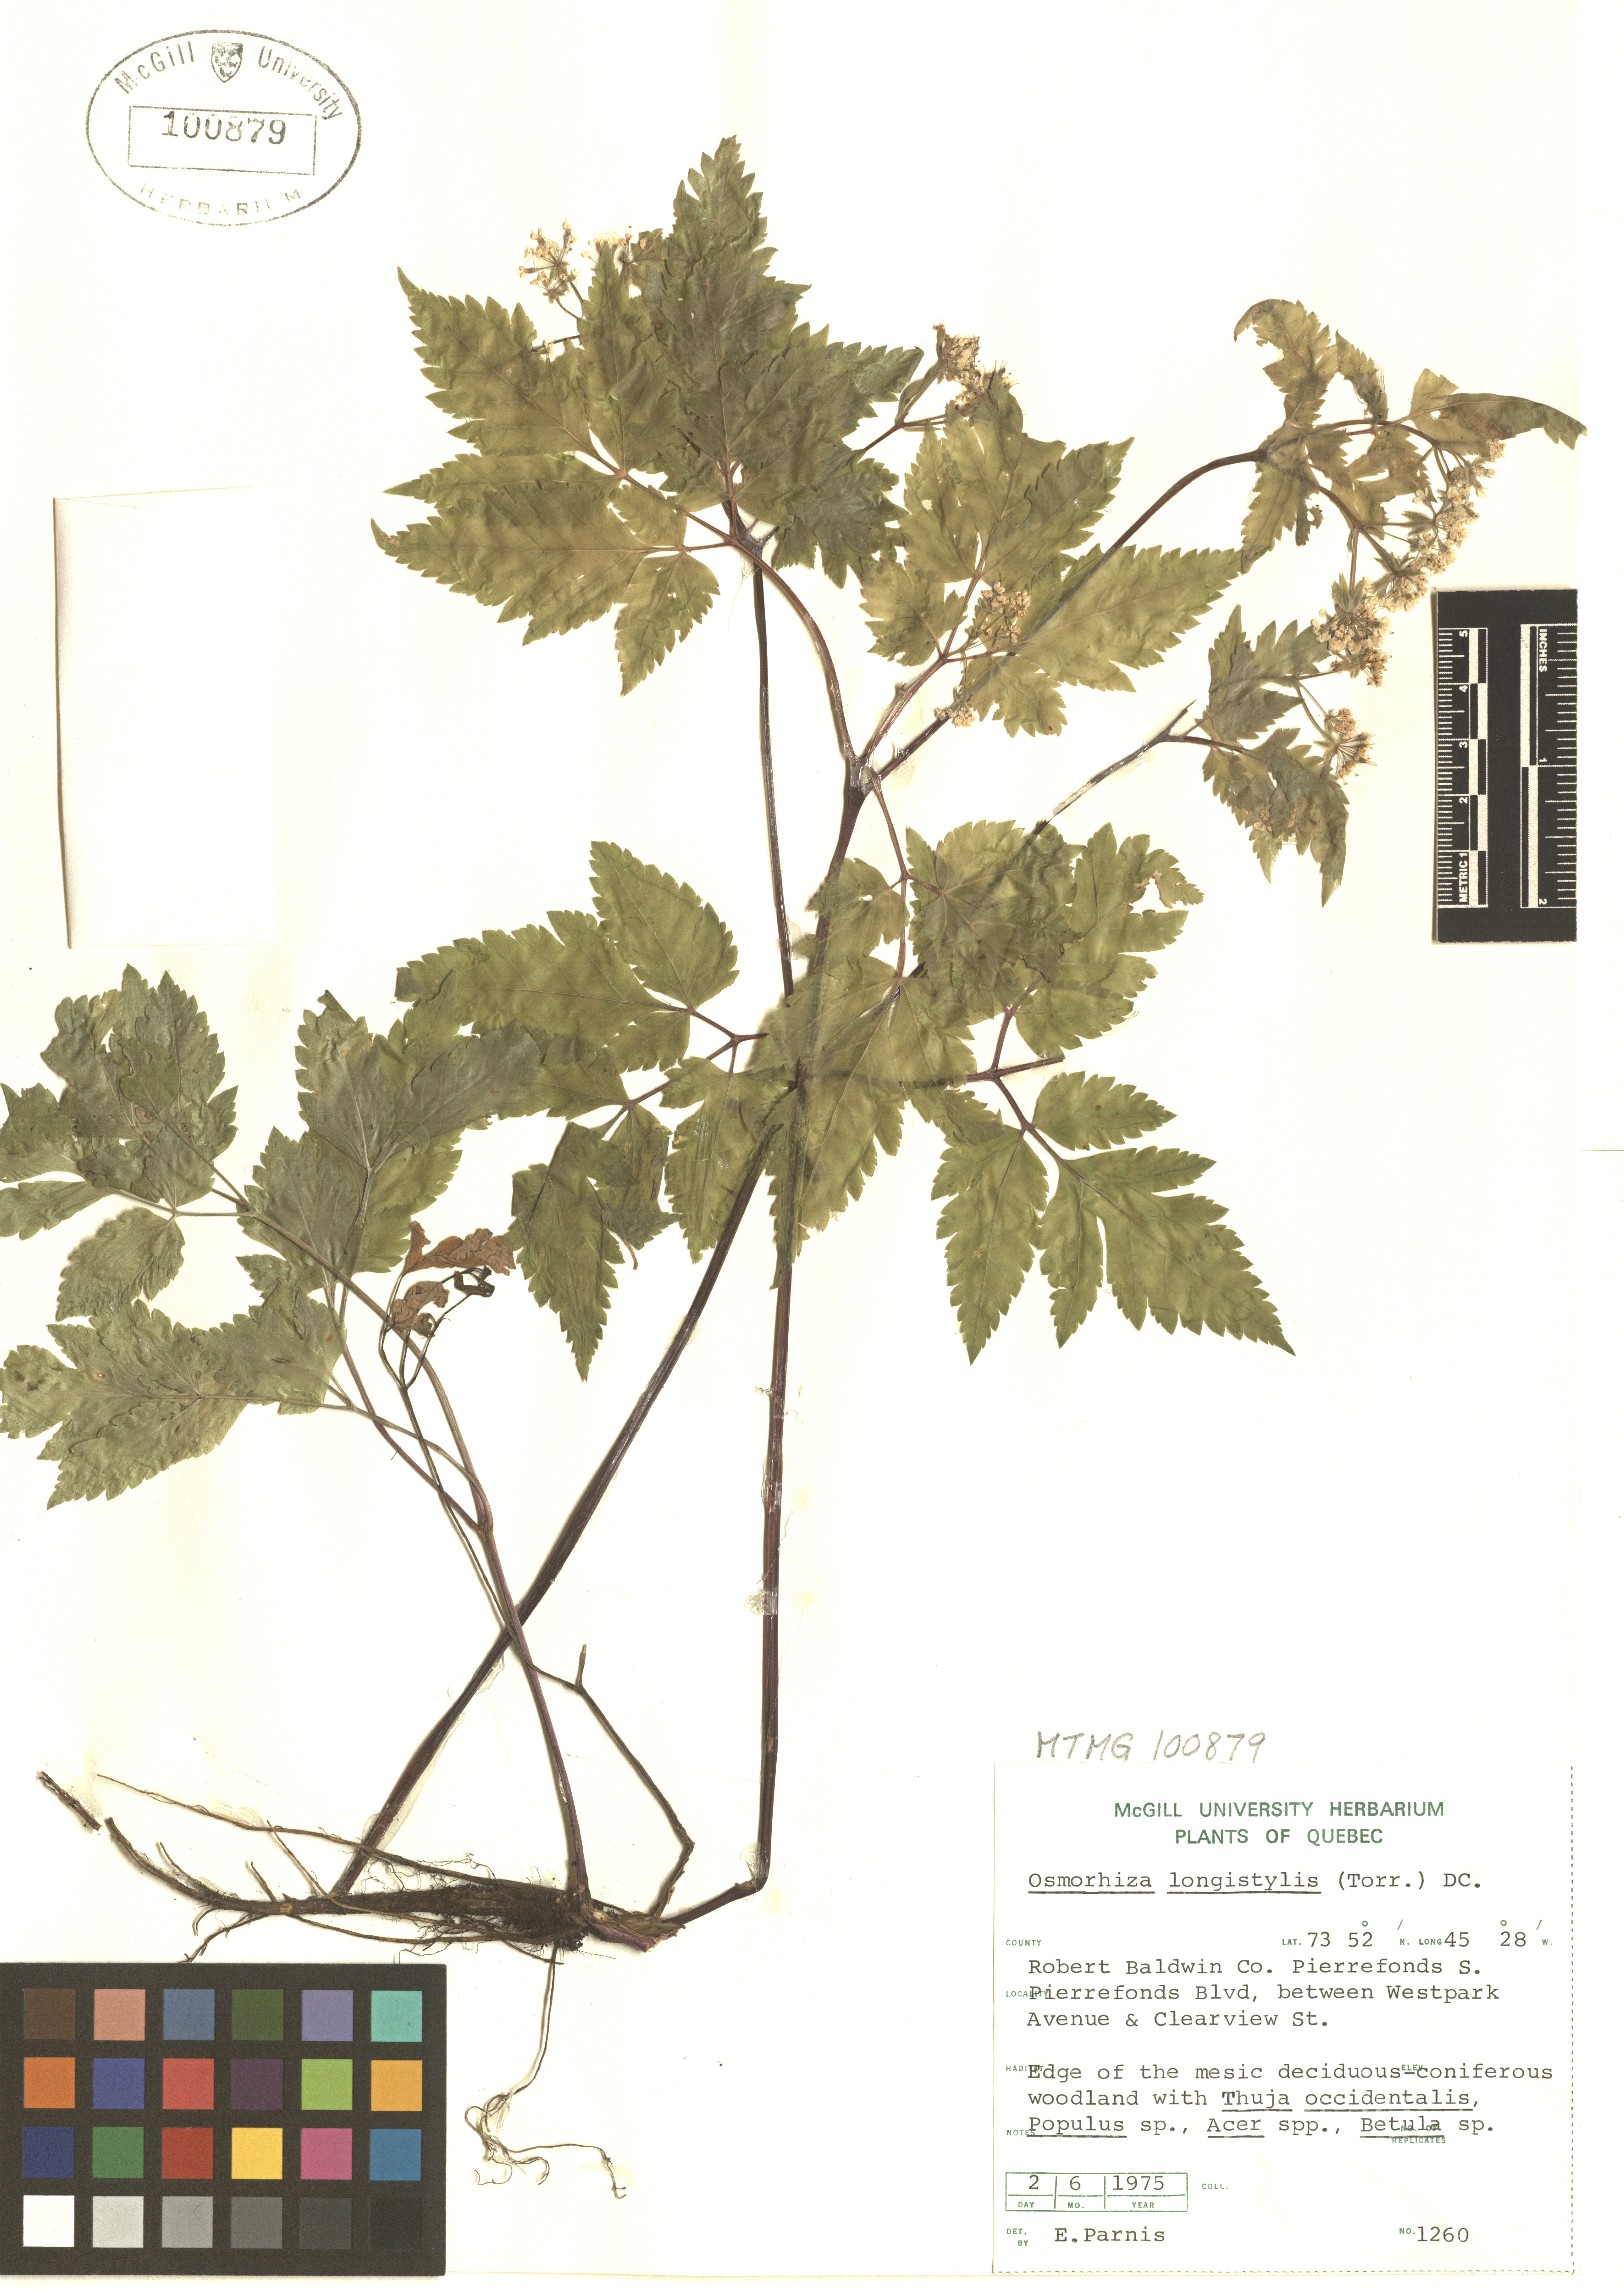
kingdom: Plantae
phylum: Tracheophyta
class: Magnoliopsida
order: Apiales
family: Apiaceae
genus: Osmorhiza
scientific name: Osmorhiza longistylis
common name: Smooth sweet cicely
